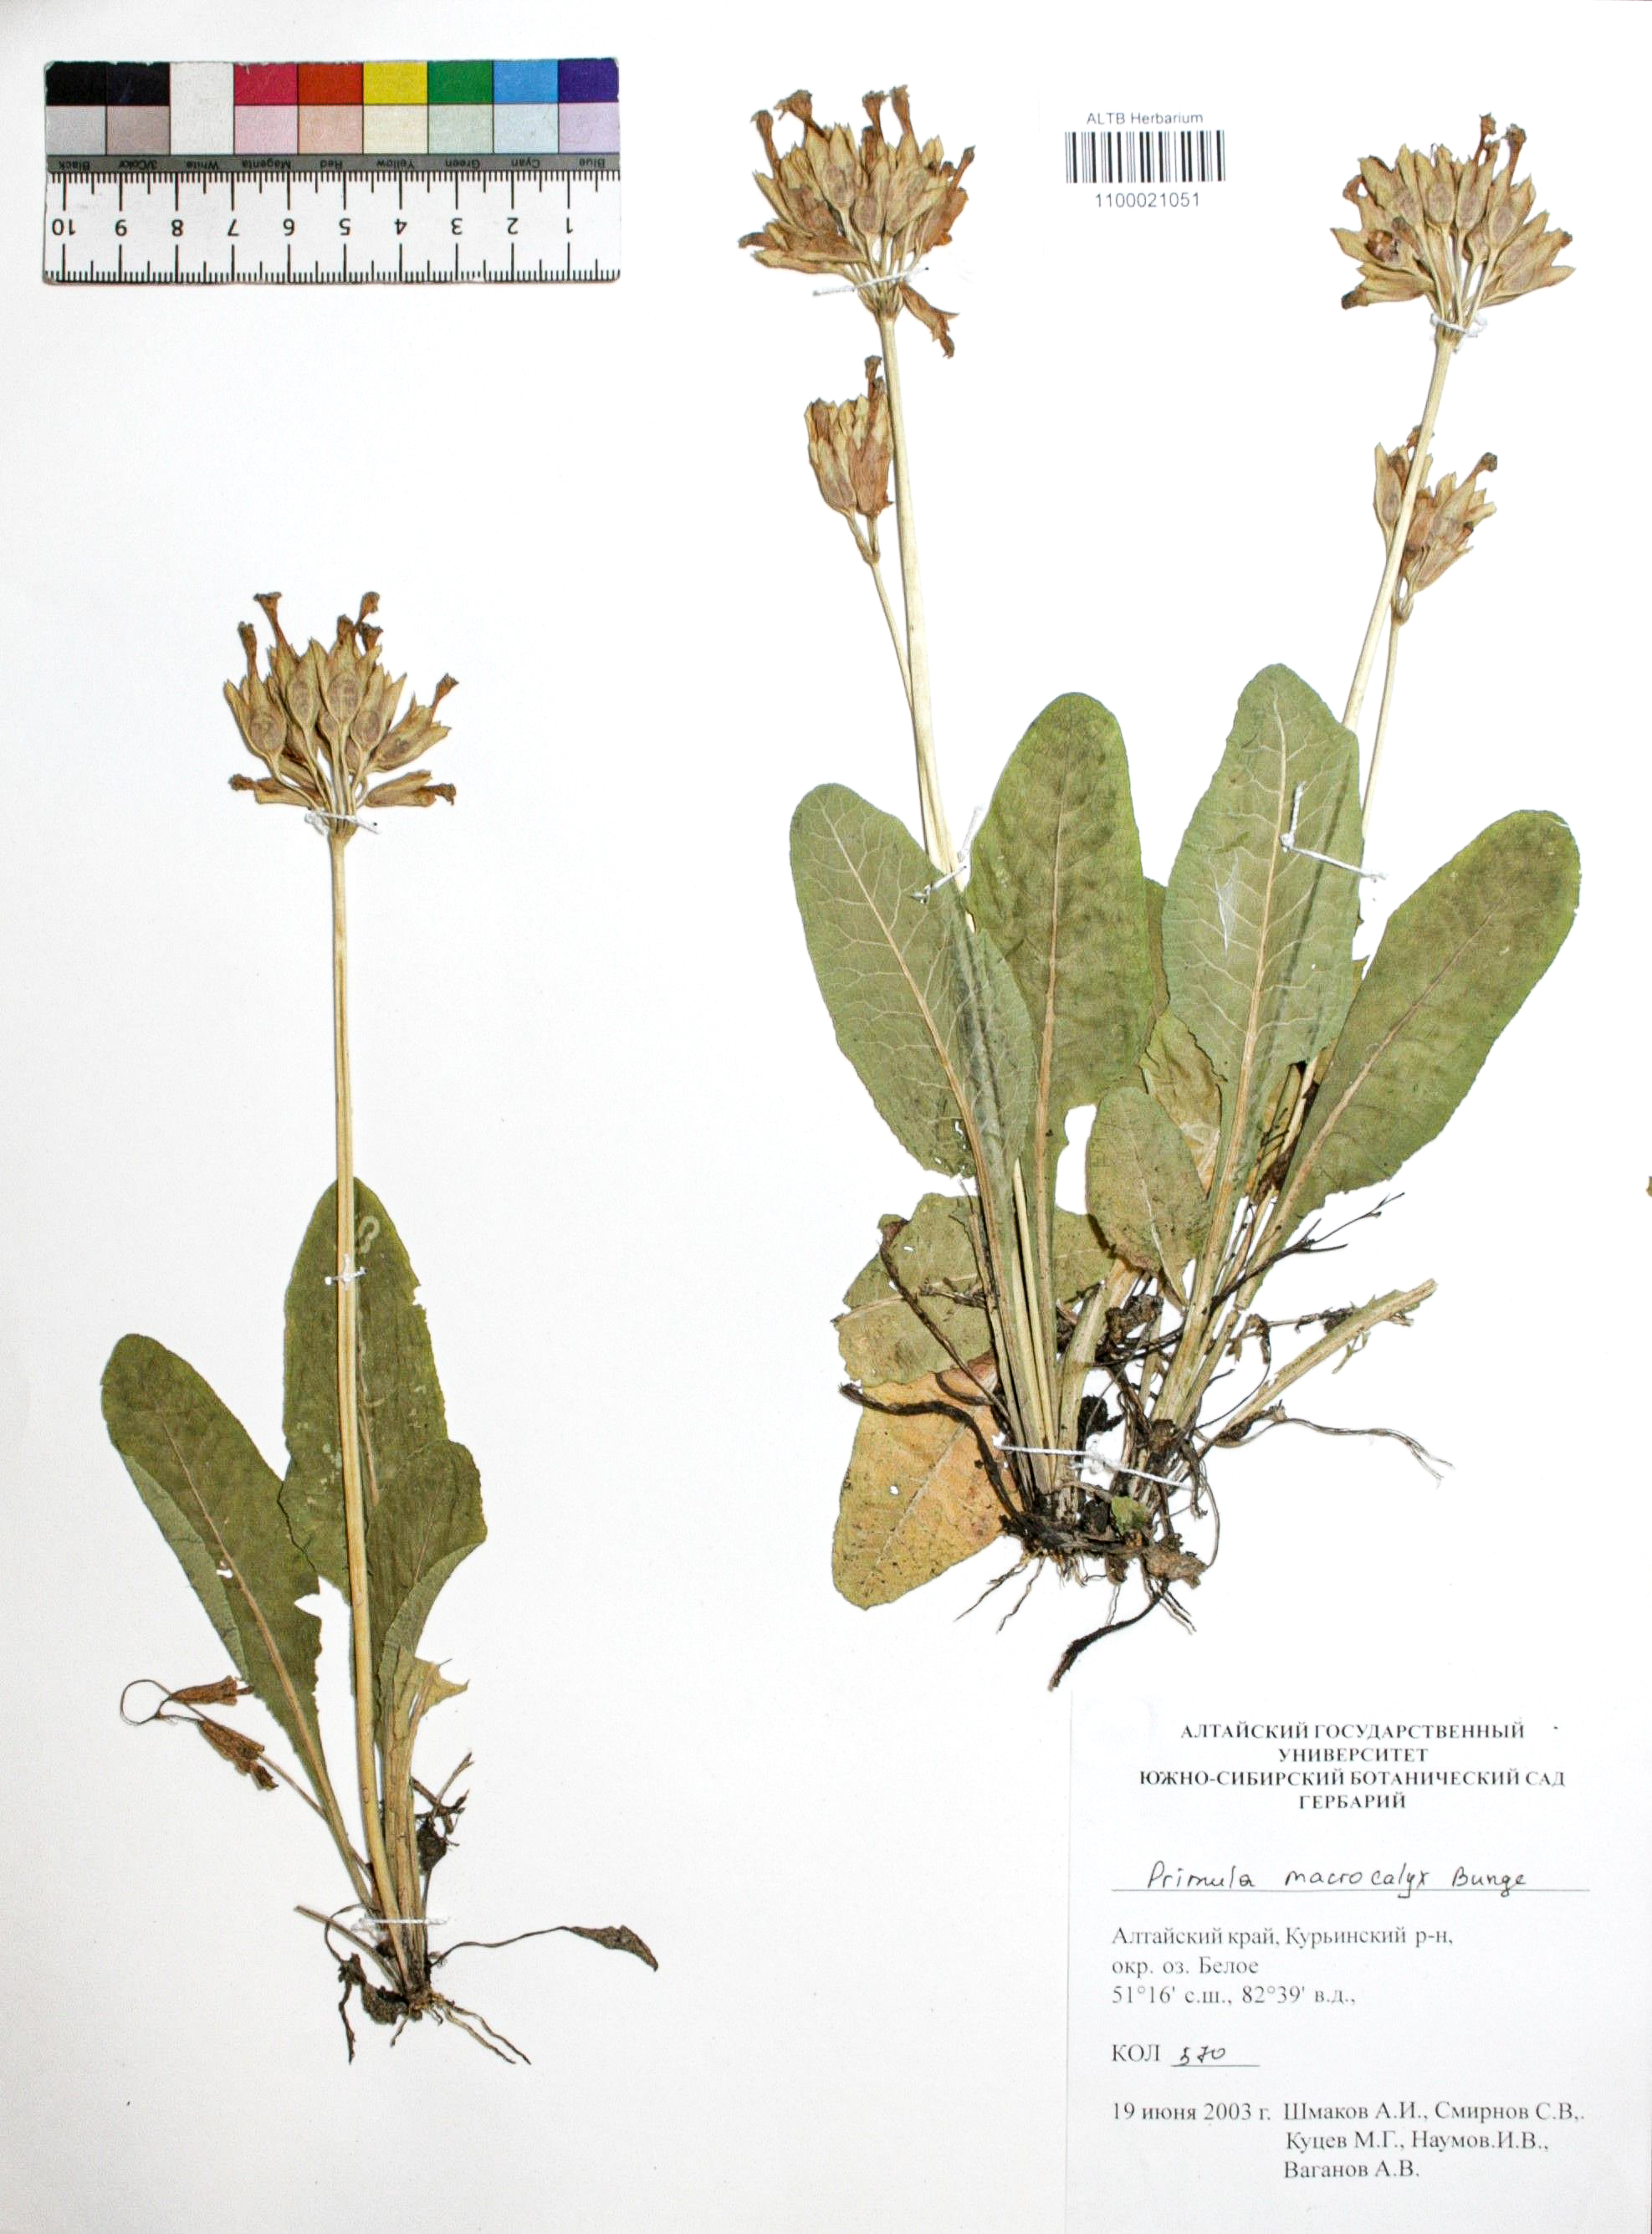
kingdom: Plantae
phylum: Tracheophyta
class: Magnoliopsida
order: Ericales
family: Primulaceae
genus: Primula
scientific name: Primula veris
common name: Cowslip
